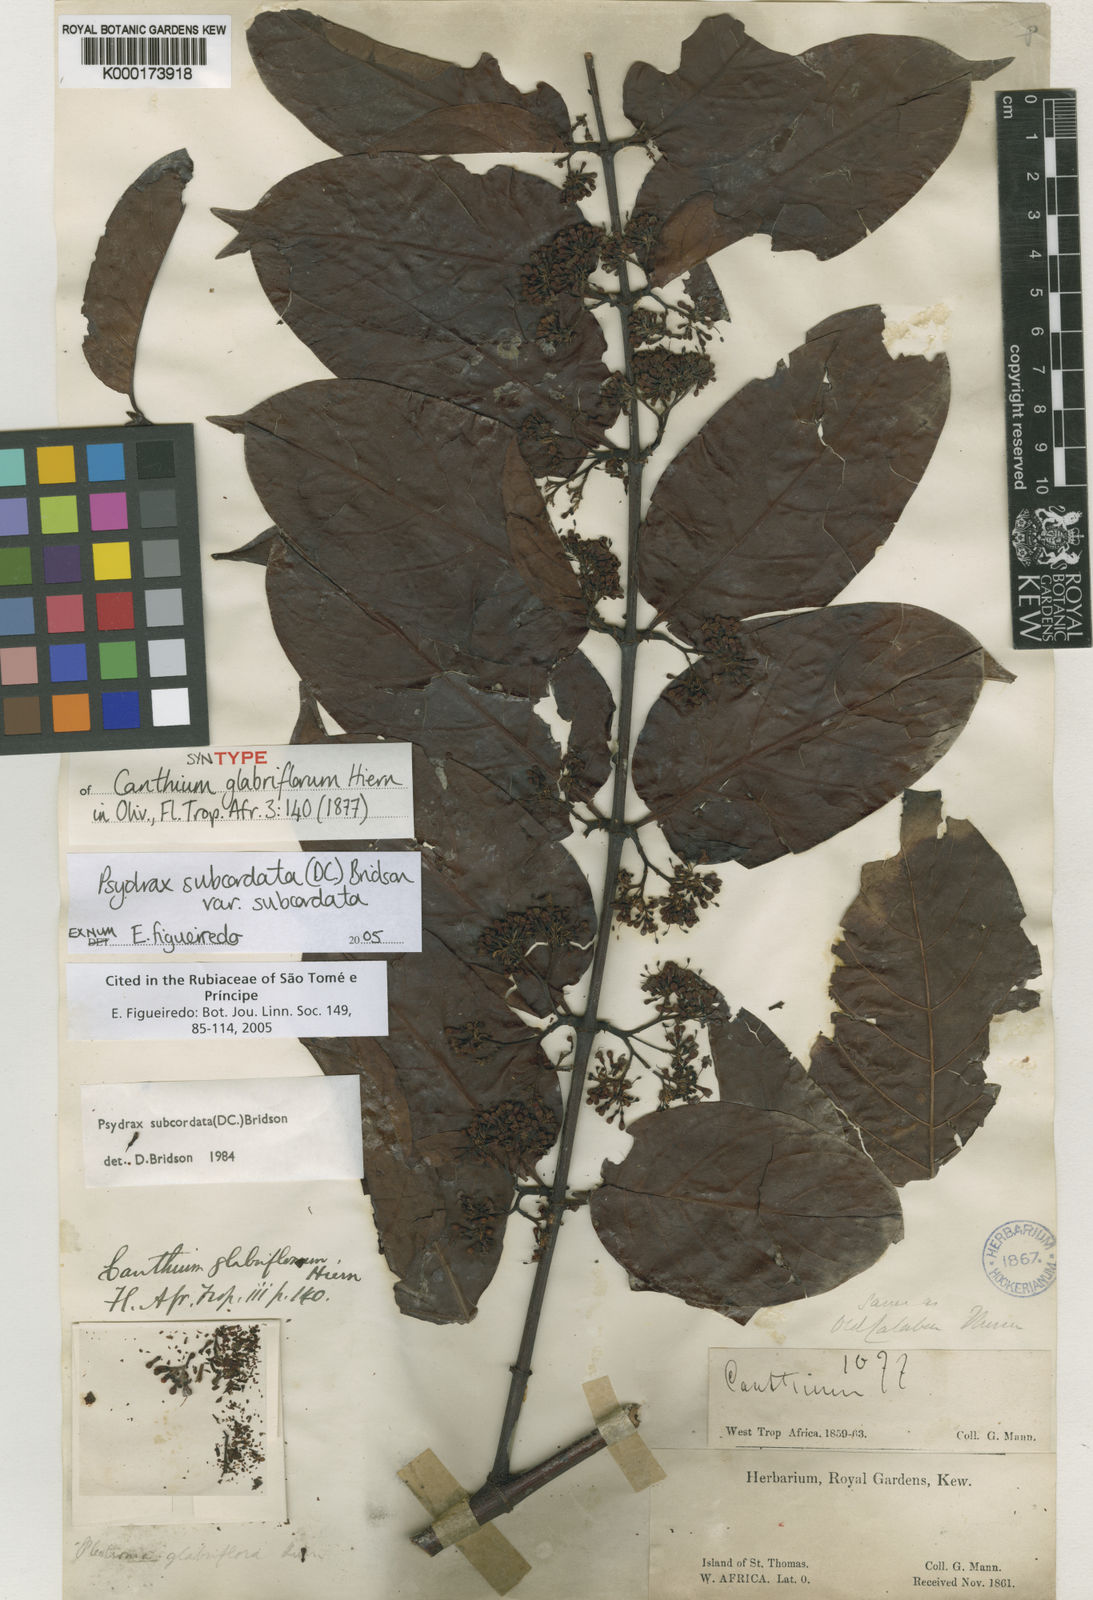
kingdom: Plantae
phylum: Tracheophyta
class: Magnoliopsida
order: Gentianales
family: Rubiaceae
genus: Psydrax
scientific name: Psydrax subcordatus
